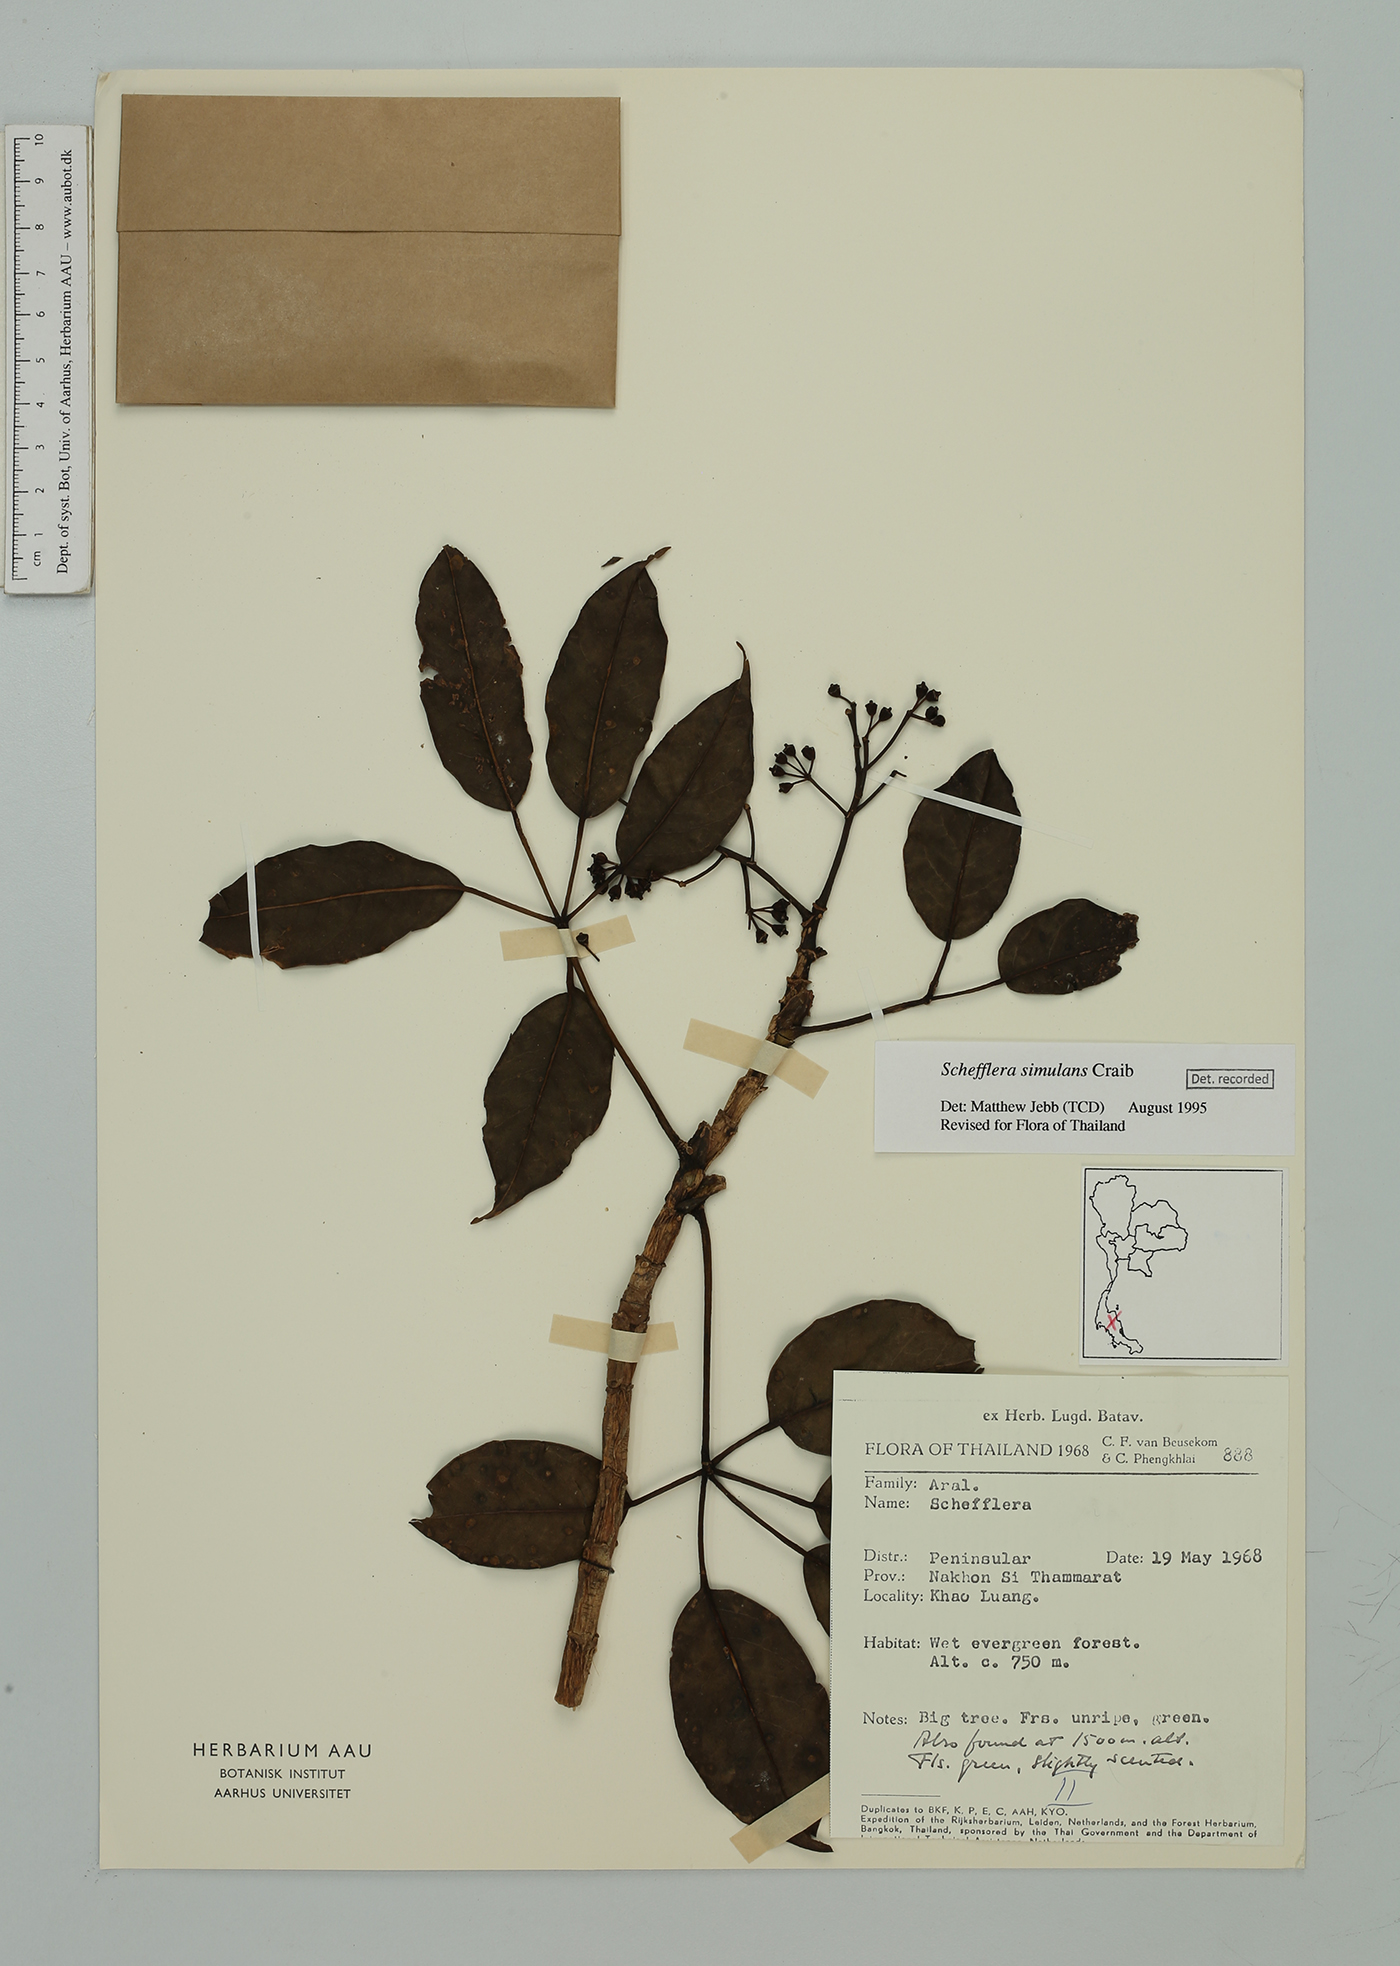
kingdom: Plantae
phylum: Tracheophyta
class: Magnoliopsida
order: Apiales
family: Araliaceae
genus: Heptapleurum
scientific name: Heptapleurum affine
